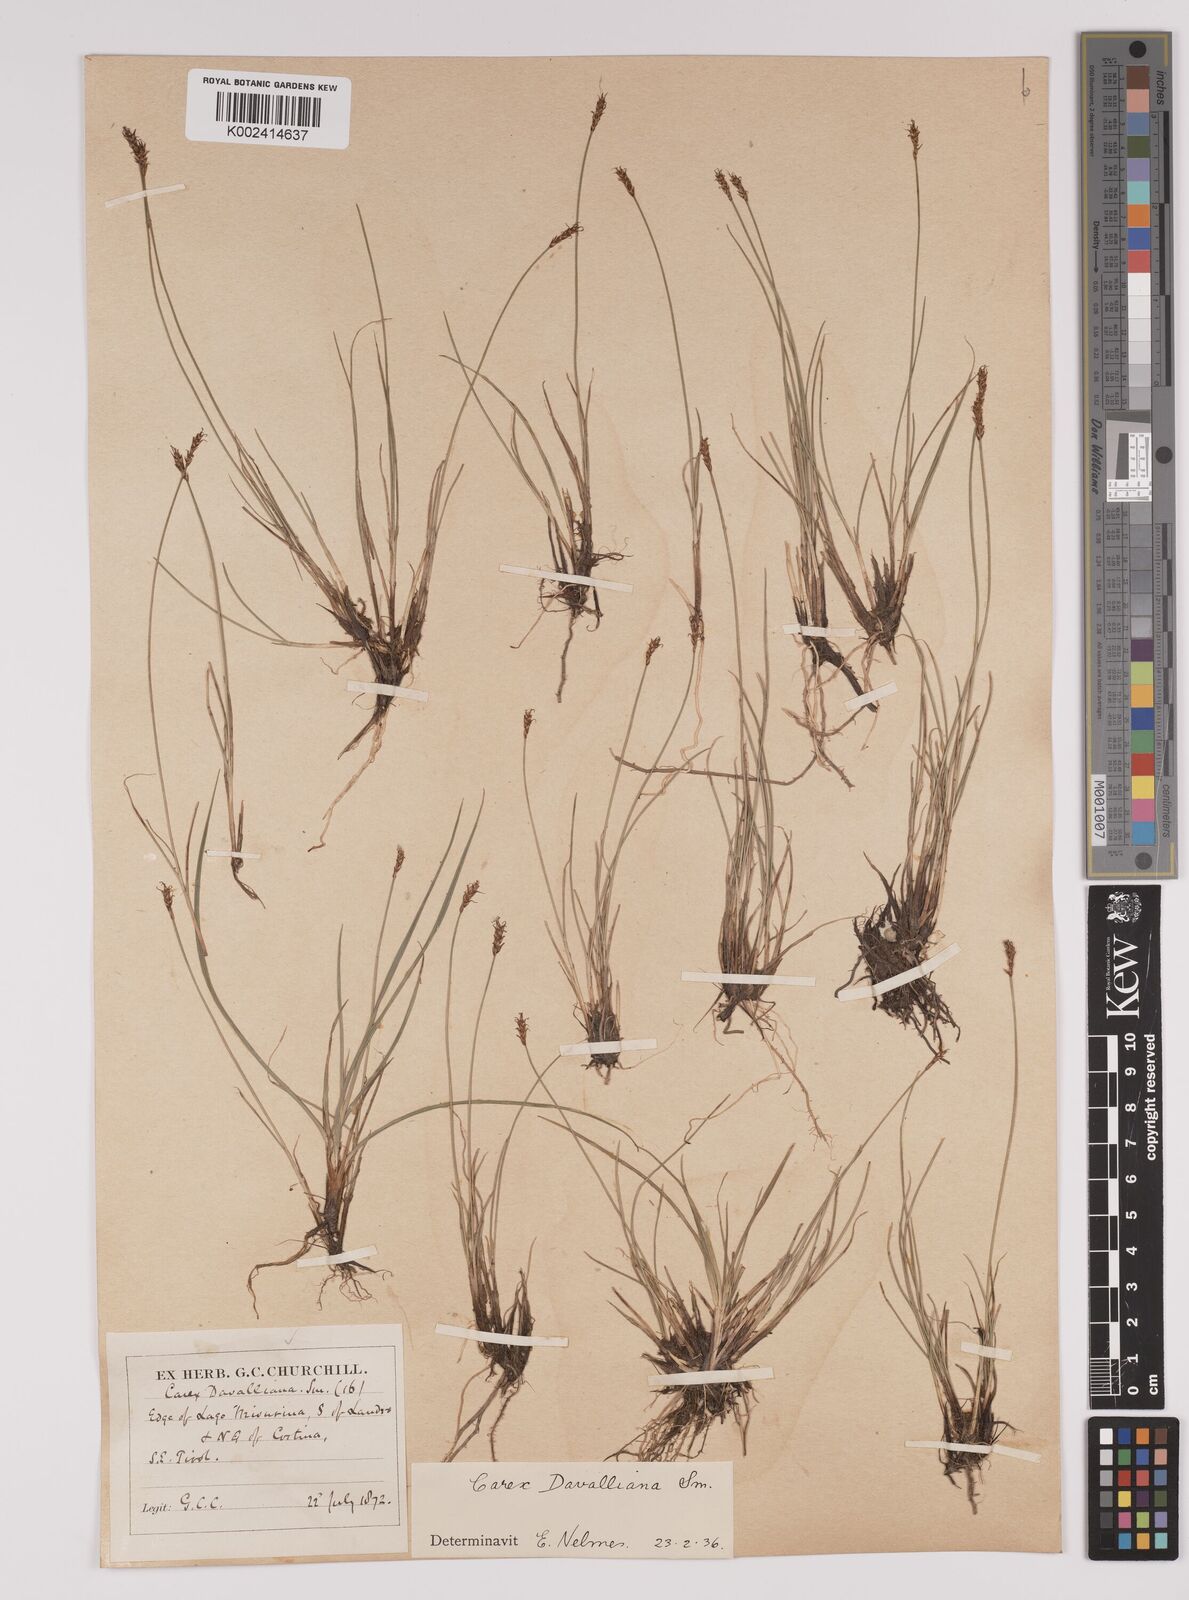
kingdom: Plantae
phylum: Tracheophyta
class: Liliopsida
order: Poales
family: Cyperaceae
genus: Carex
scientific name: Carex davalliana
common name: Davall's sedge
